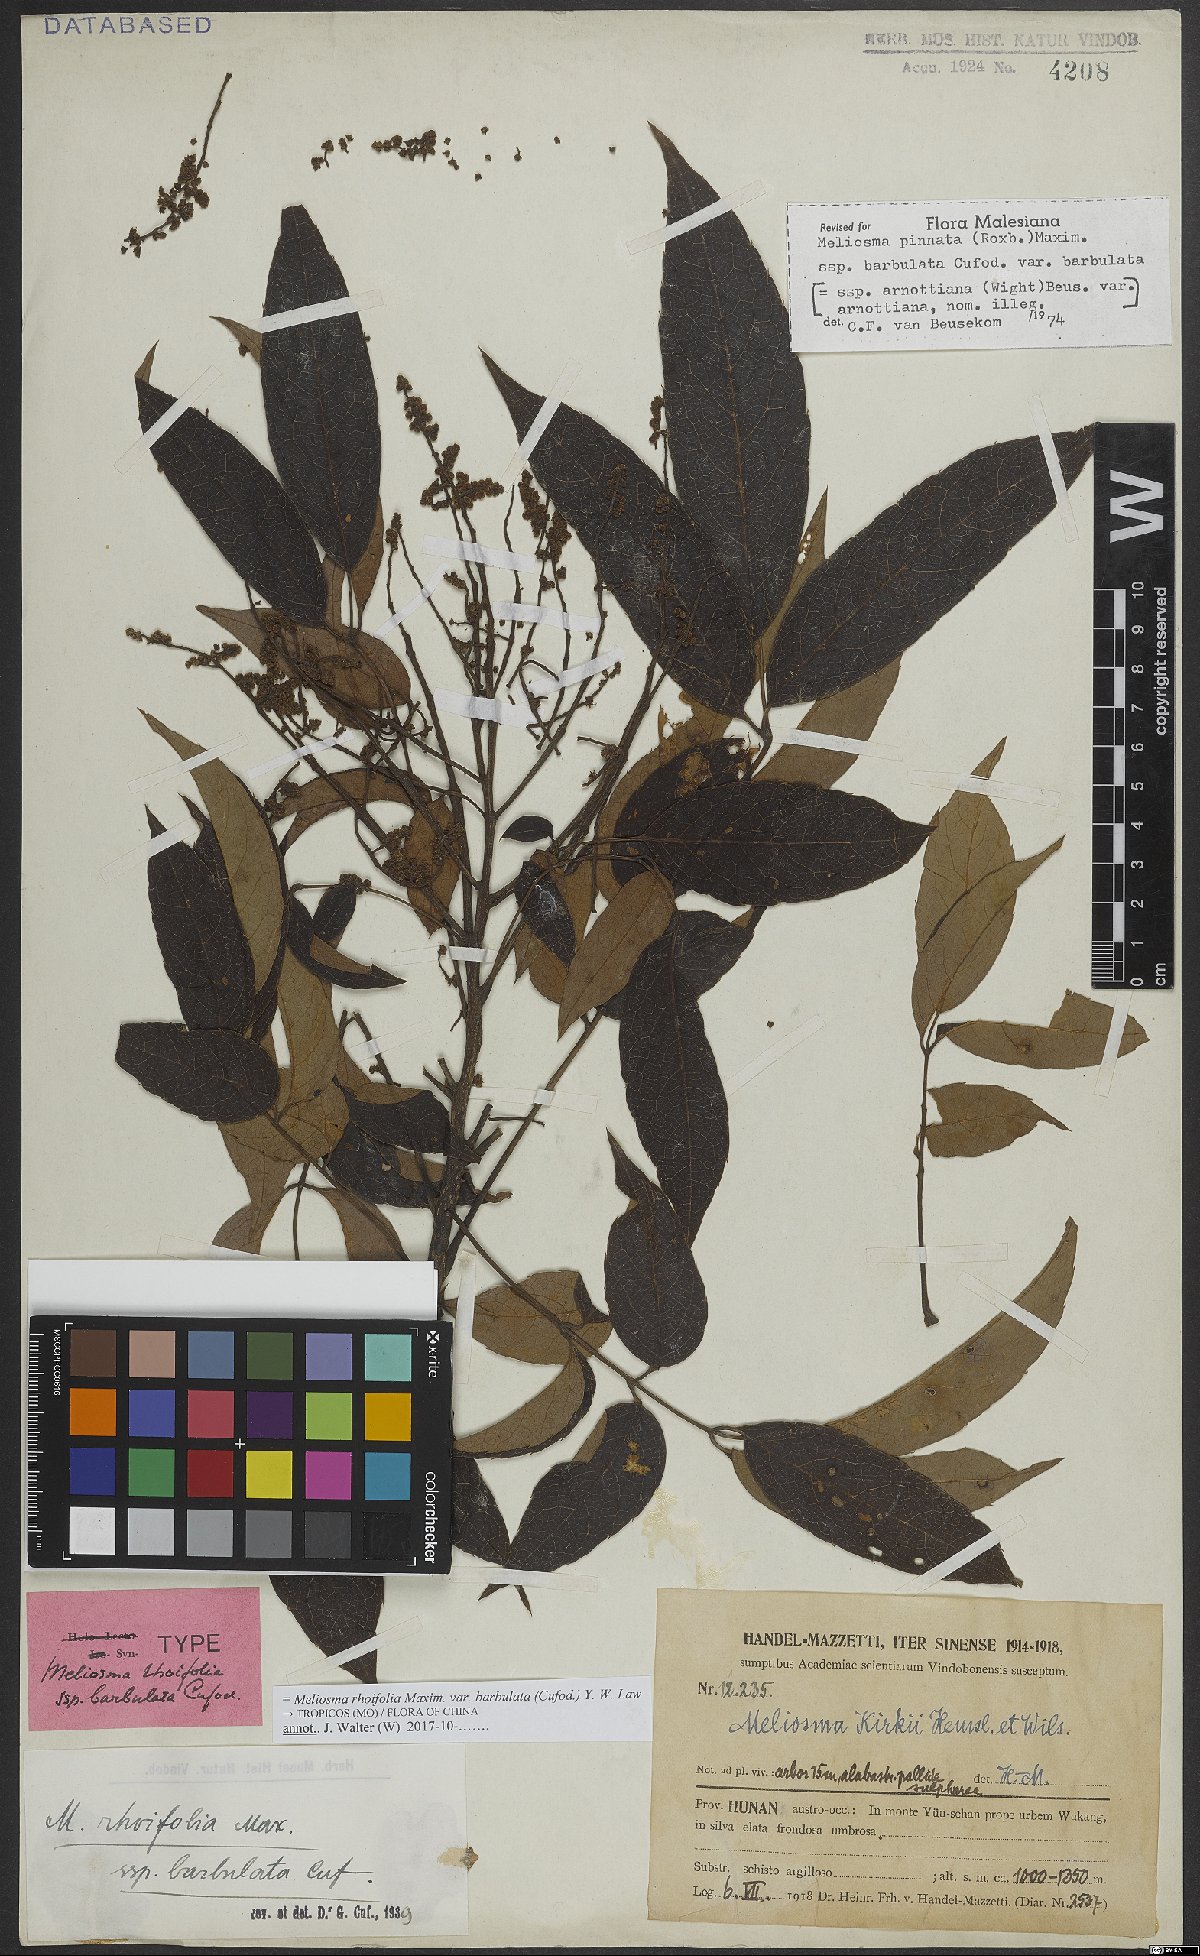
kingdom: Plantae
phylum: Tracheophyta
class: Magnoliopsida
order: Proteales
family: Sabiaceae
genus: Meliosma
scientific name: Meliosma rhoifolia
